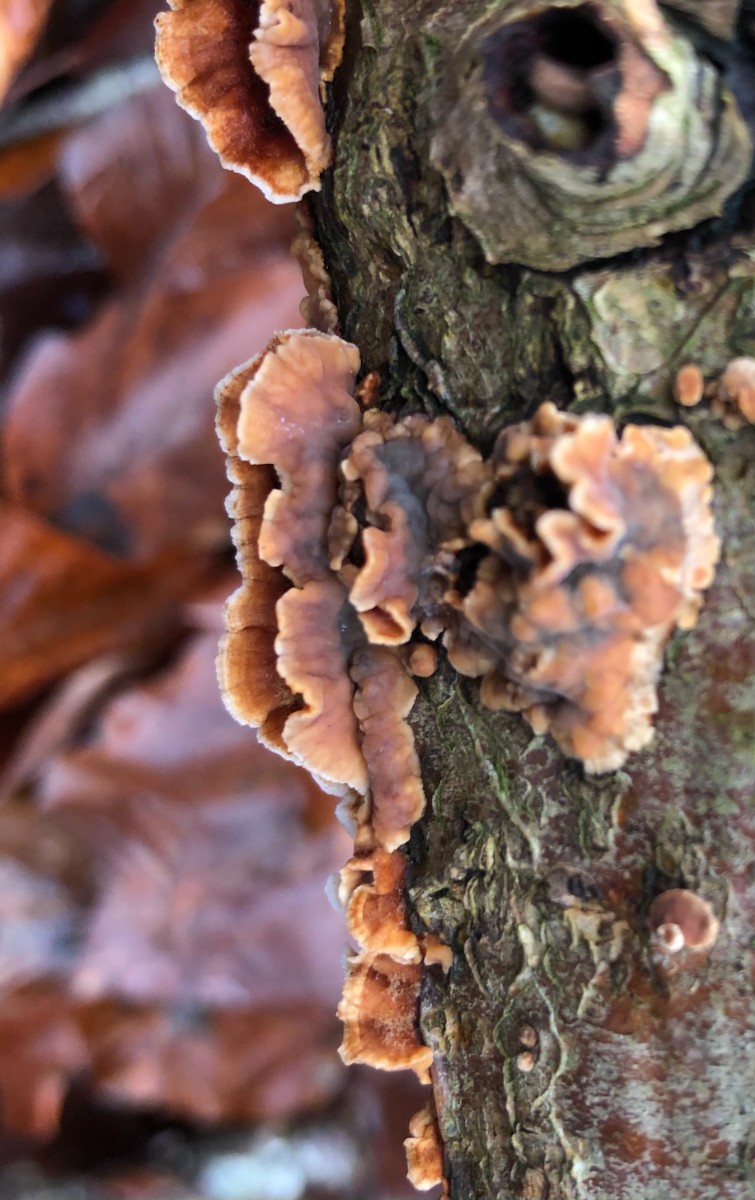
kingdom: Fungi
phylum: Basidiomycota
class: Agaricomycetes
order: Russulales
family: Stereaceae
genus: Stereum
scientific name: Stereum gausapatum
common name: tynd lædersvamp
